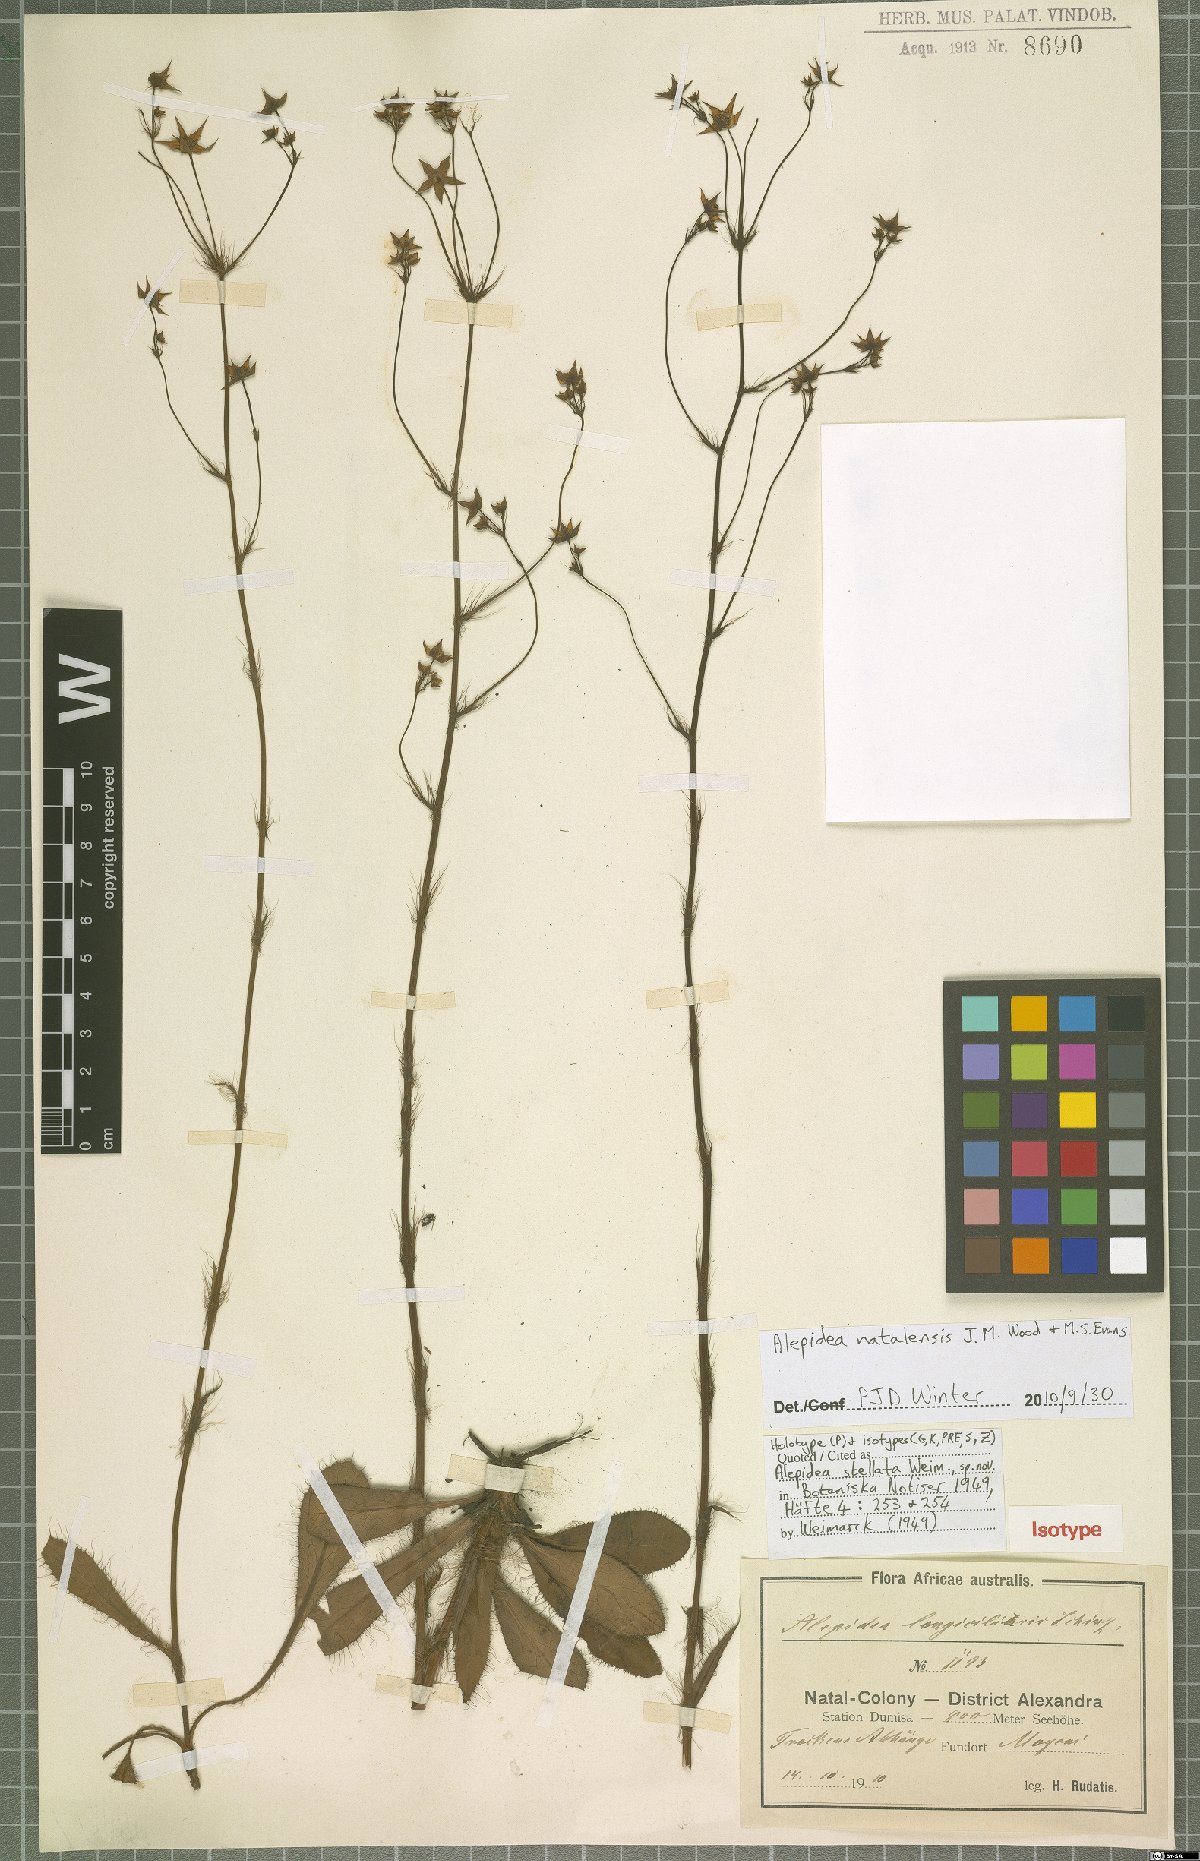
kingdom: Plantae
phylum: Tracheophyta
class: Magnoliopsida
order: Apiales
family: Apiaceae
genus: Alepidea
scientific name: Alepidea natalensis
